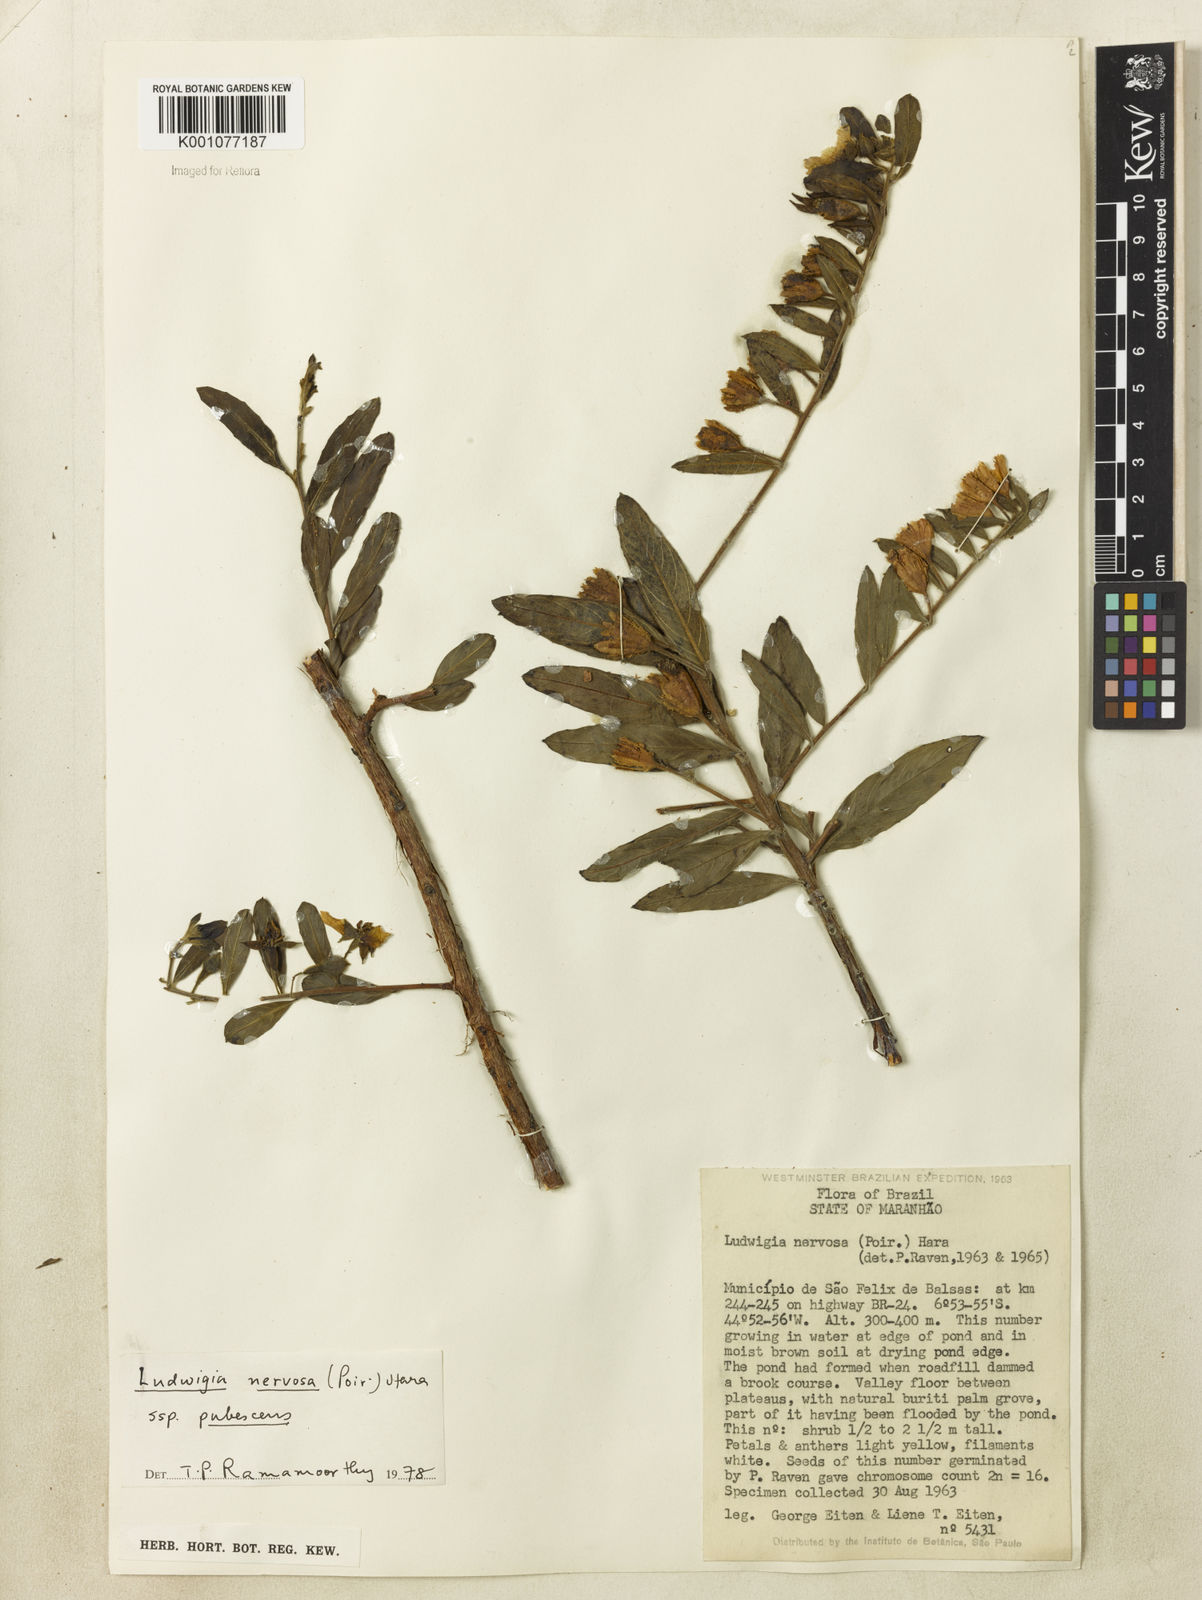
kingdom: Plantae
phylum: Tracheophyta
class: Magnoliopsida
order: Myrtales
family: Onagraceae
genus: Ludwigia
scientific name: Ludwigia nervosa
